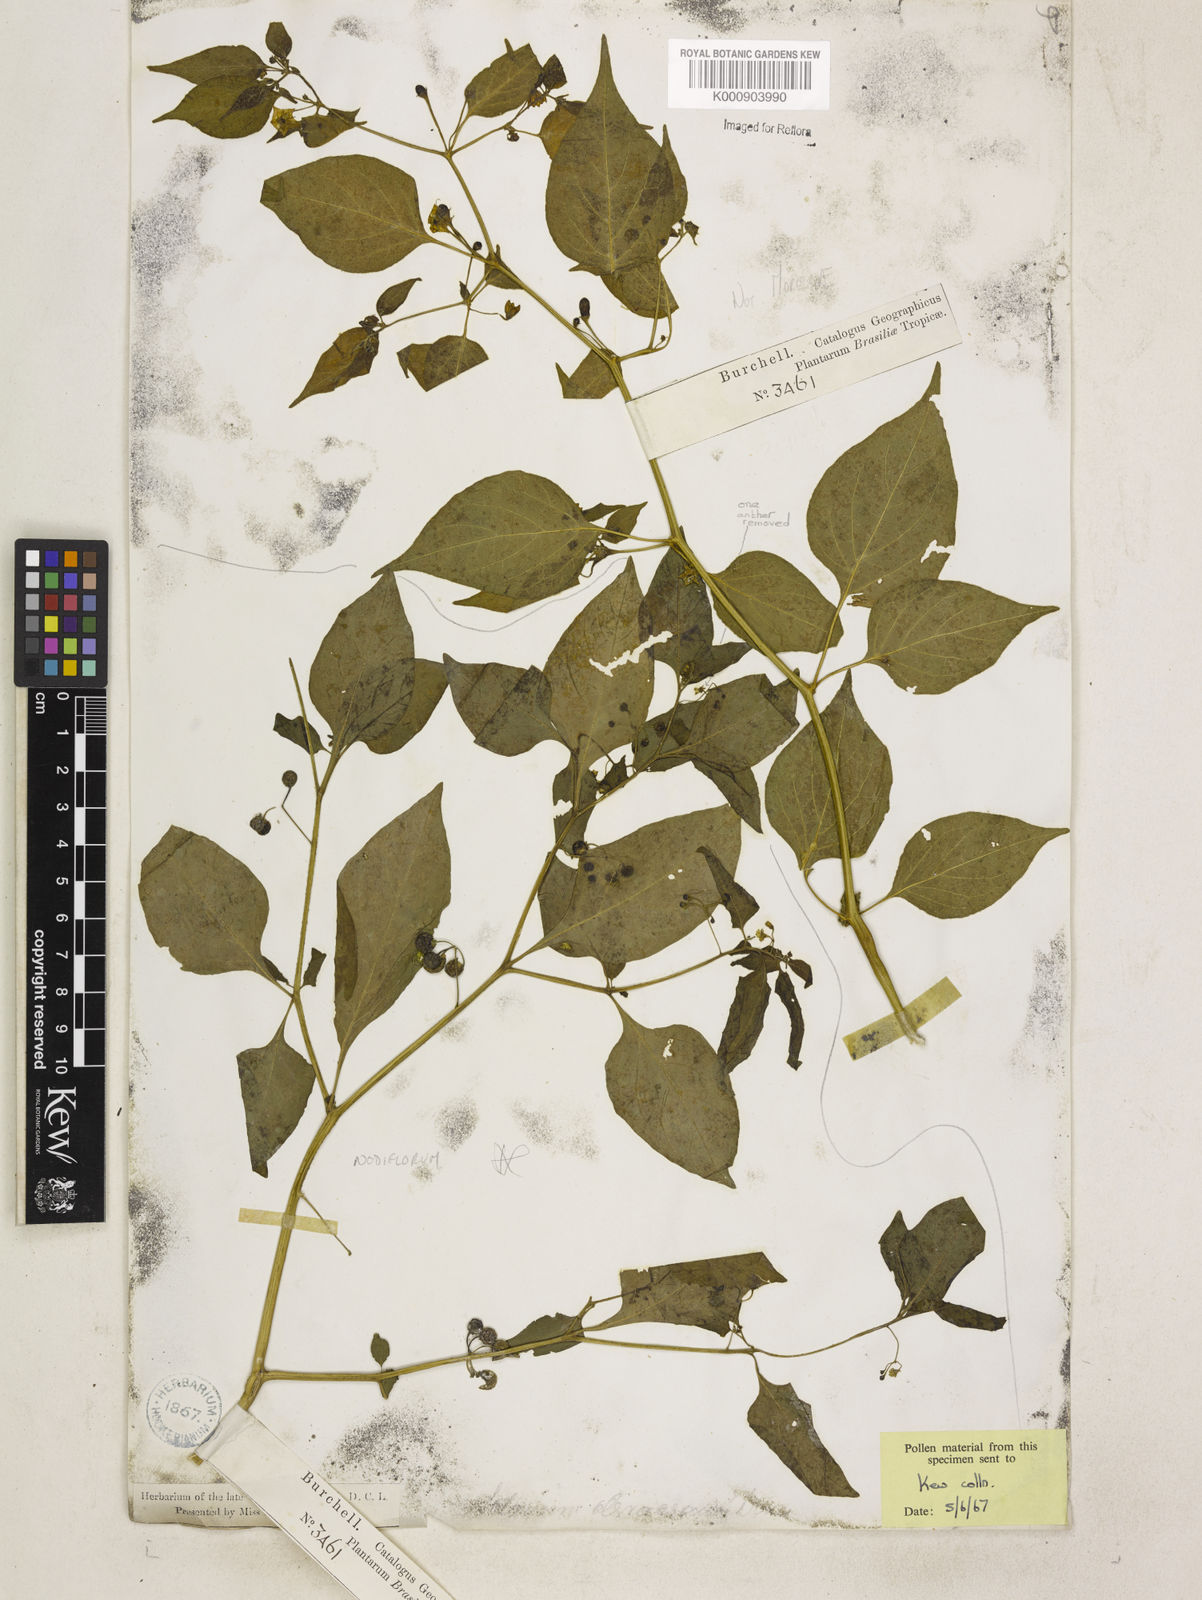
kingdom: Plantae
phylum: Tracheophyta
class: Magnoliopsida
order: Solanales
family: Solanaceae
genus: Capsicum
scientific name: Capsicum baccatum
